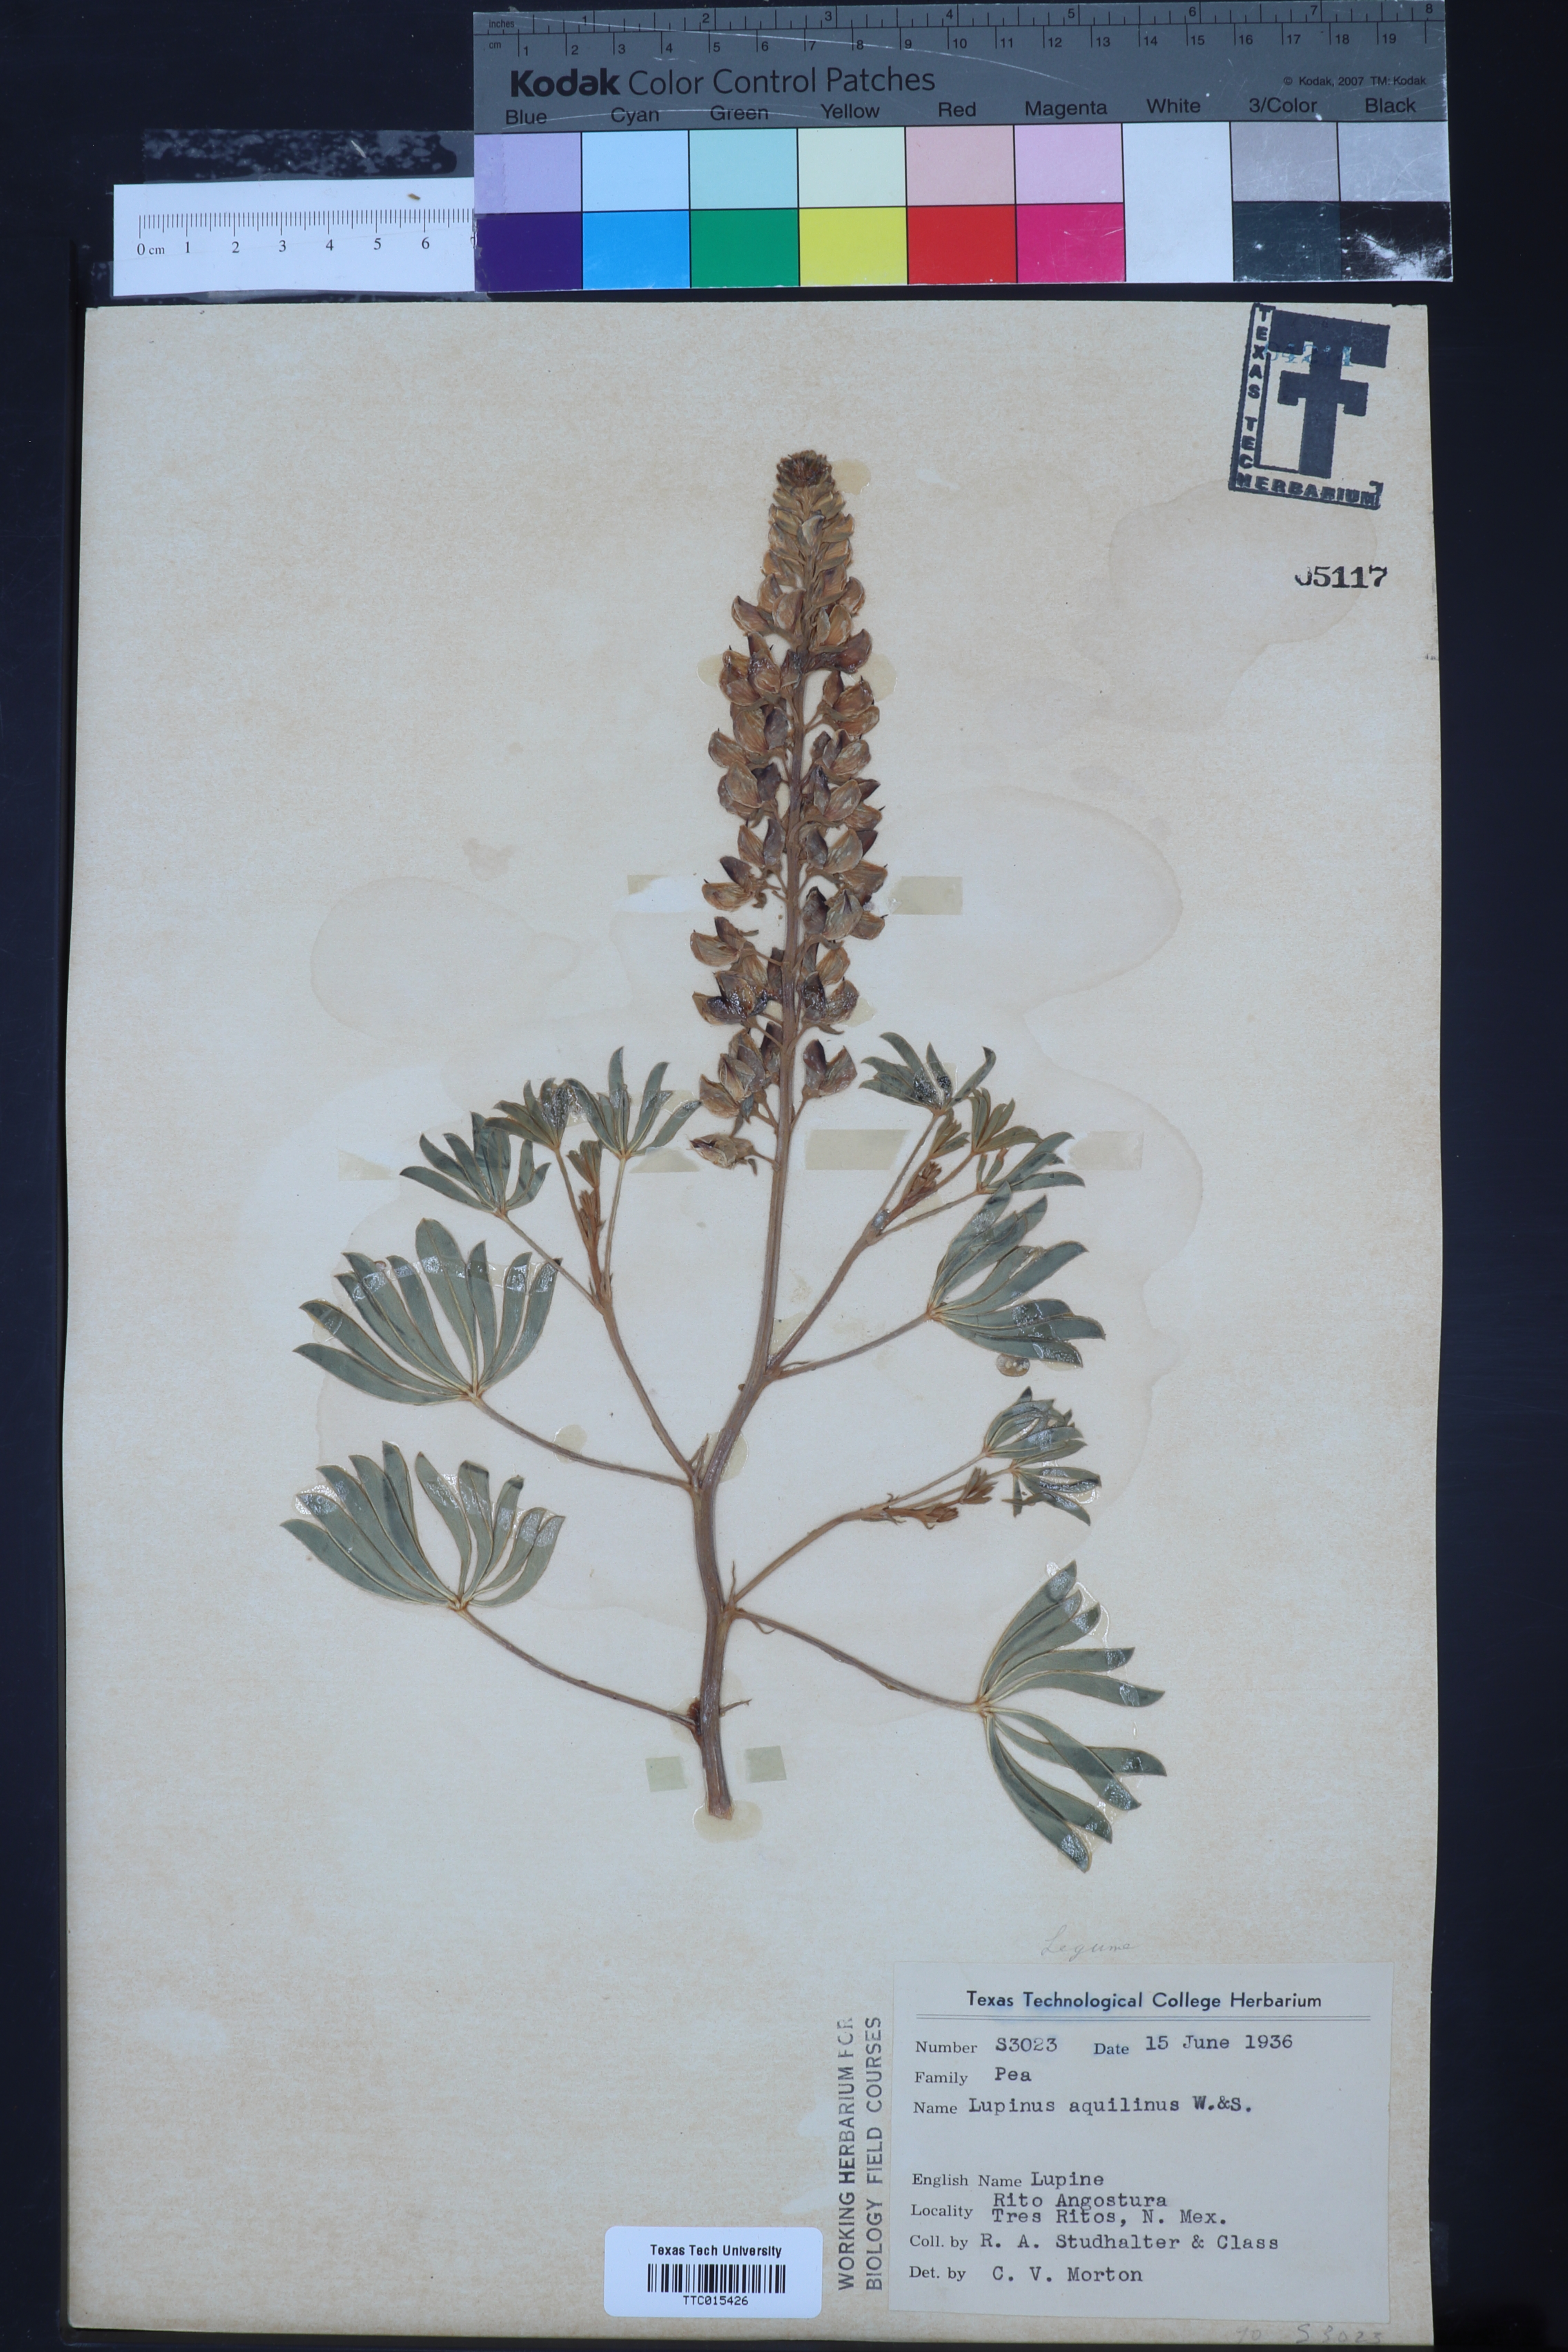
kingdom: Plantae
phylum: Tracheophyta
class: Magnoliopsida
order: Fabales
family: Fabaceae
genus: Lupinus
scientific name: Lupinus sierrae-blancae
